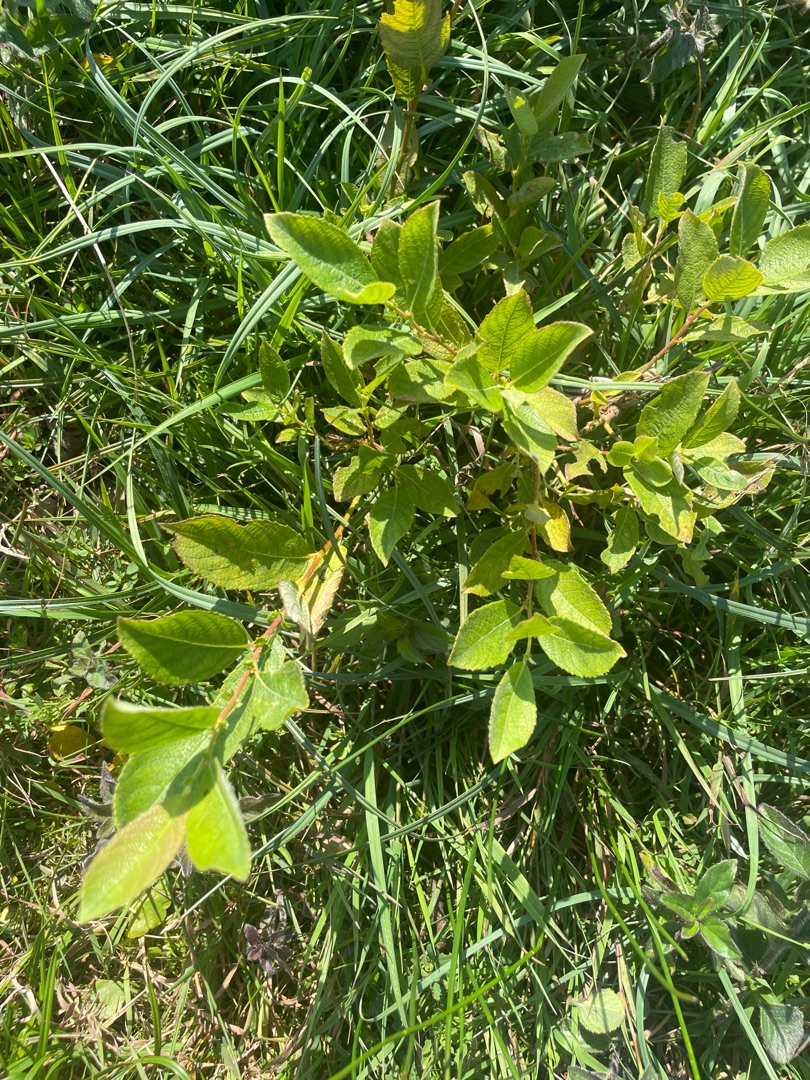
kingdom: Plantae
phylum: Tracheophyta
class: Magnoliopsida
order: Malpighiales
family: Salicaceae
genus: Salix
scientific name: Salix caprea
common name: Selje-pil
